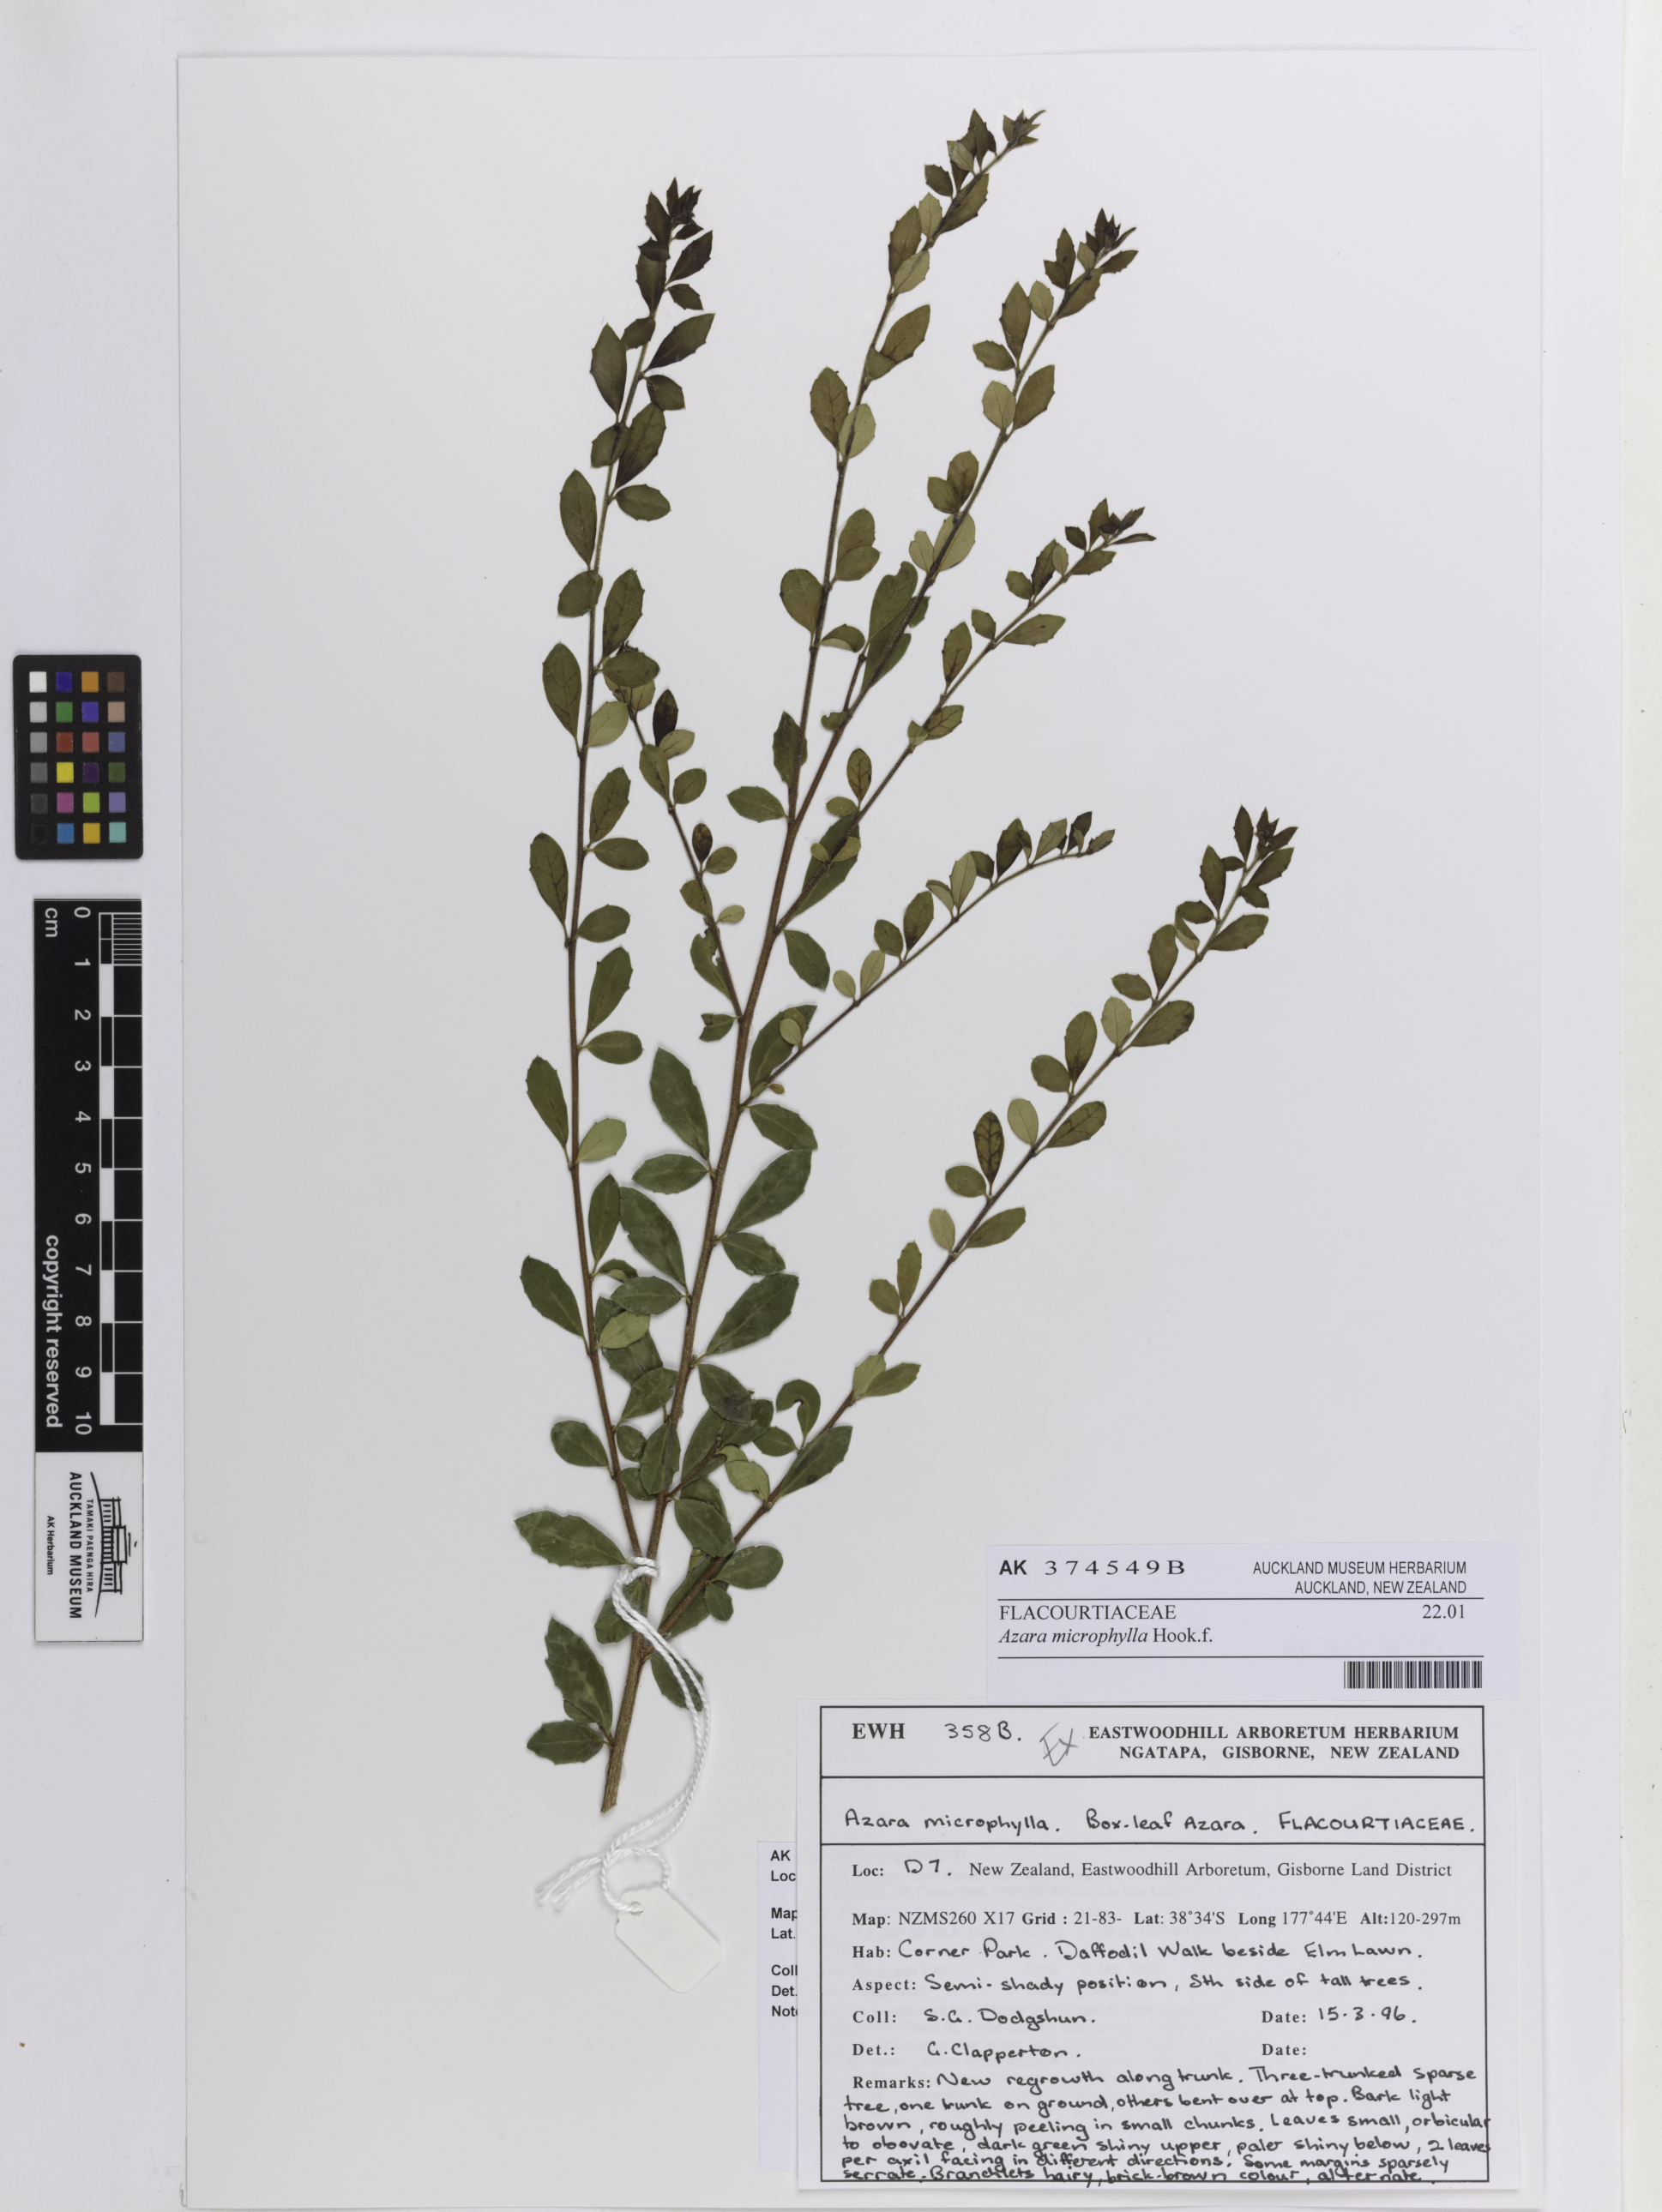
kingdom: Plantae
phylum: Tracheophyta
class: Magnoliopsida
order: Malpighiales
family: Salicaceae
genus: Azara
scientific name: Azara microphylla
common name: Box-leaf azara
